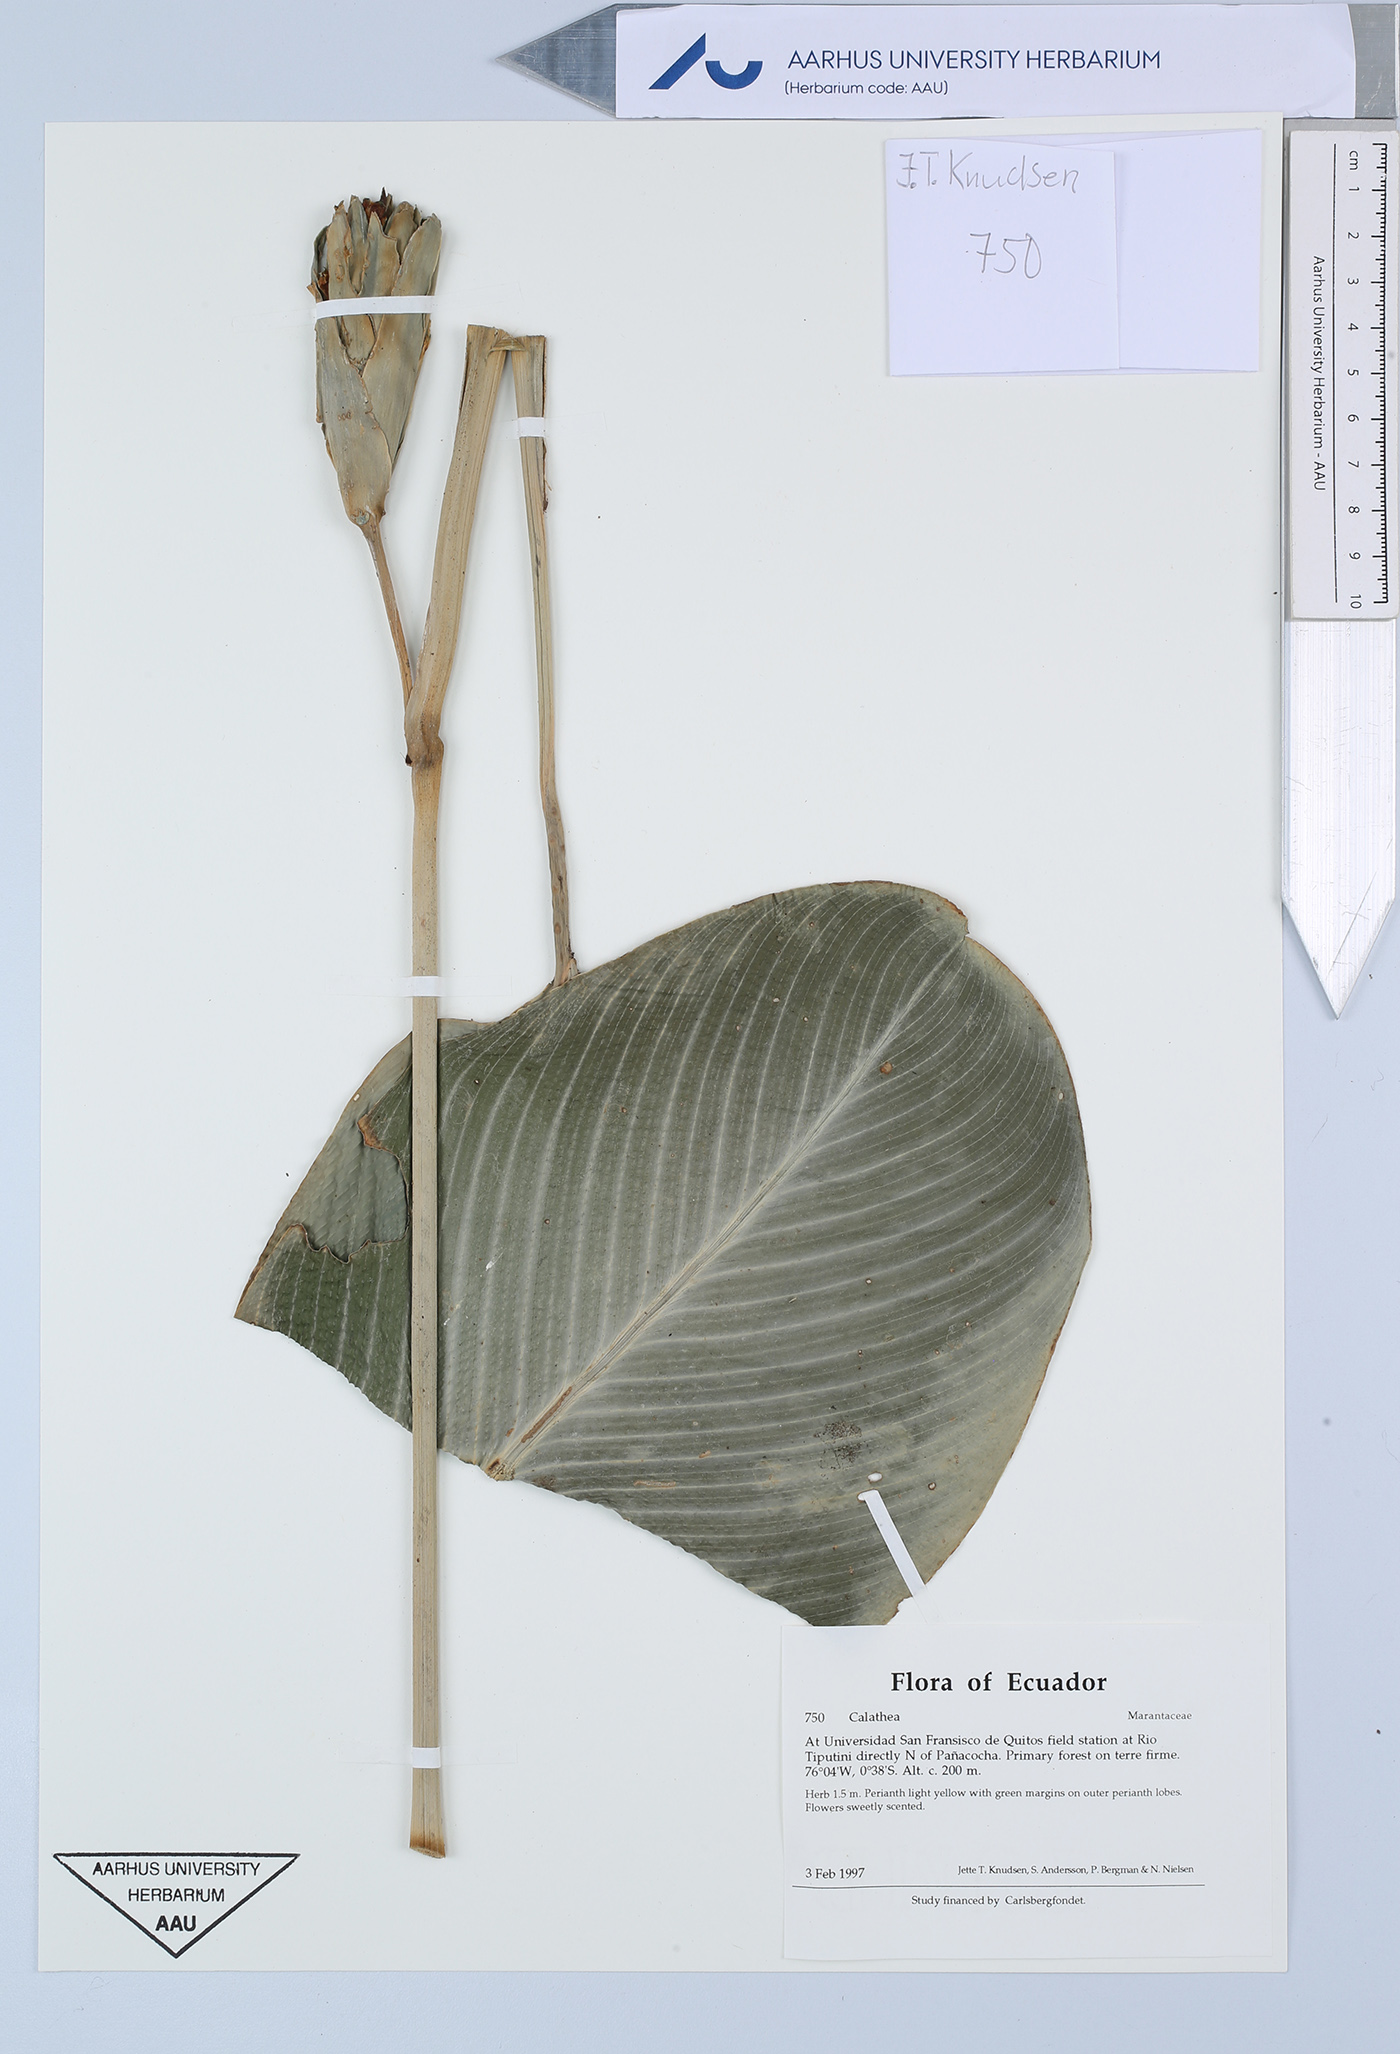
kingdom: Plantae
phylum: Tracheophyta
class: Liliopsida
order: Zingiberales
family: Marantaceae
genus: Calathea
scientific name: Calathea
